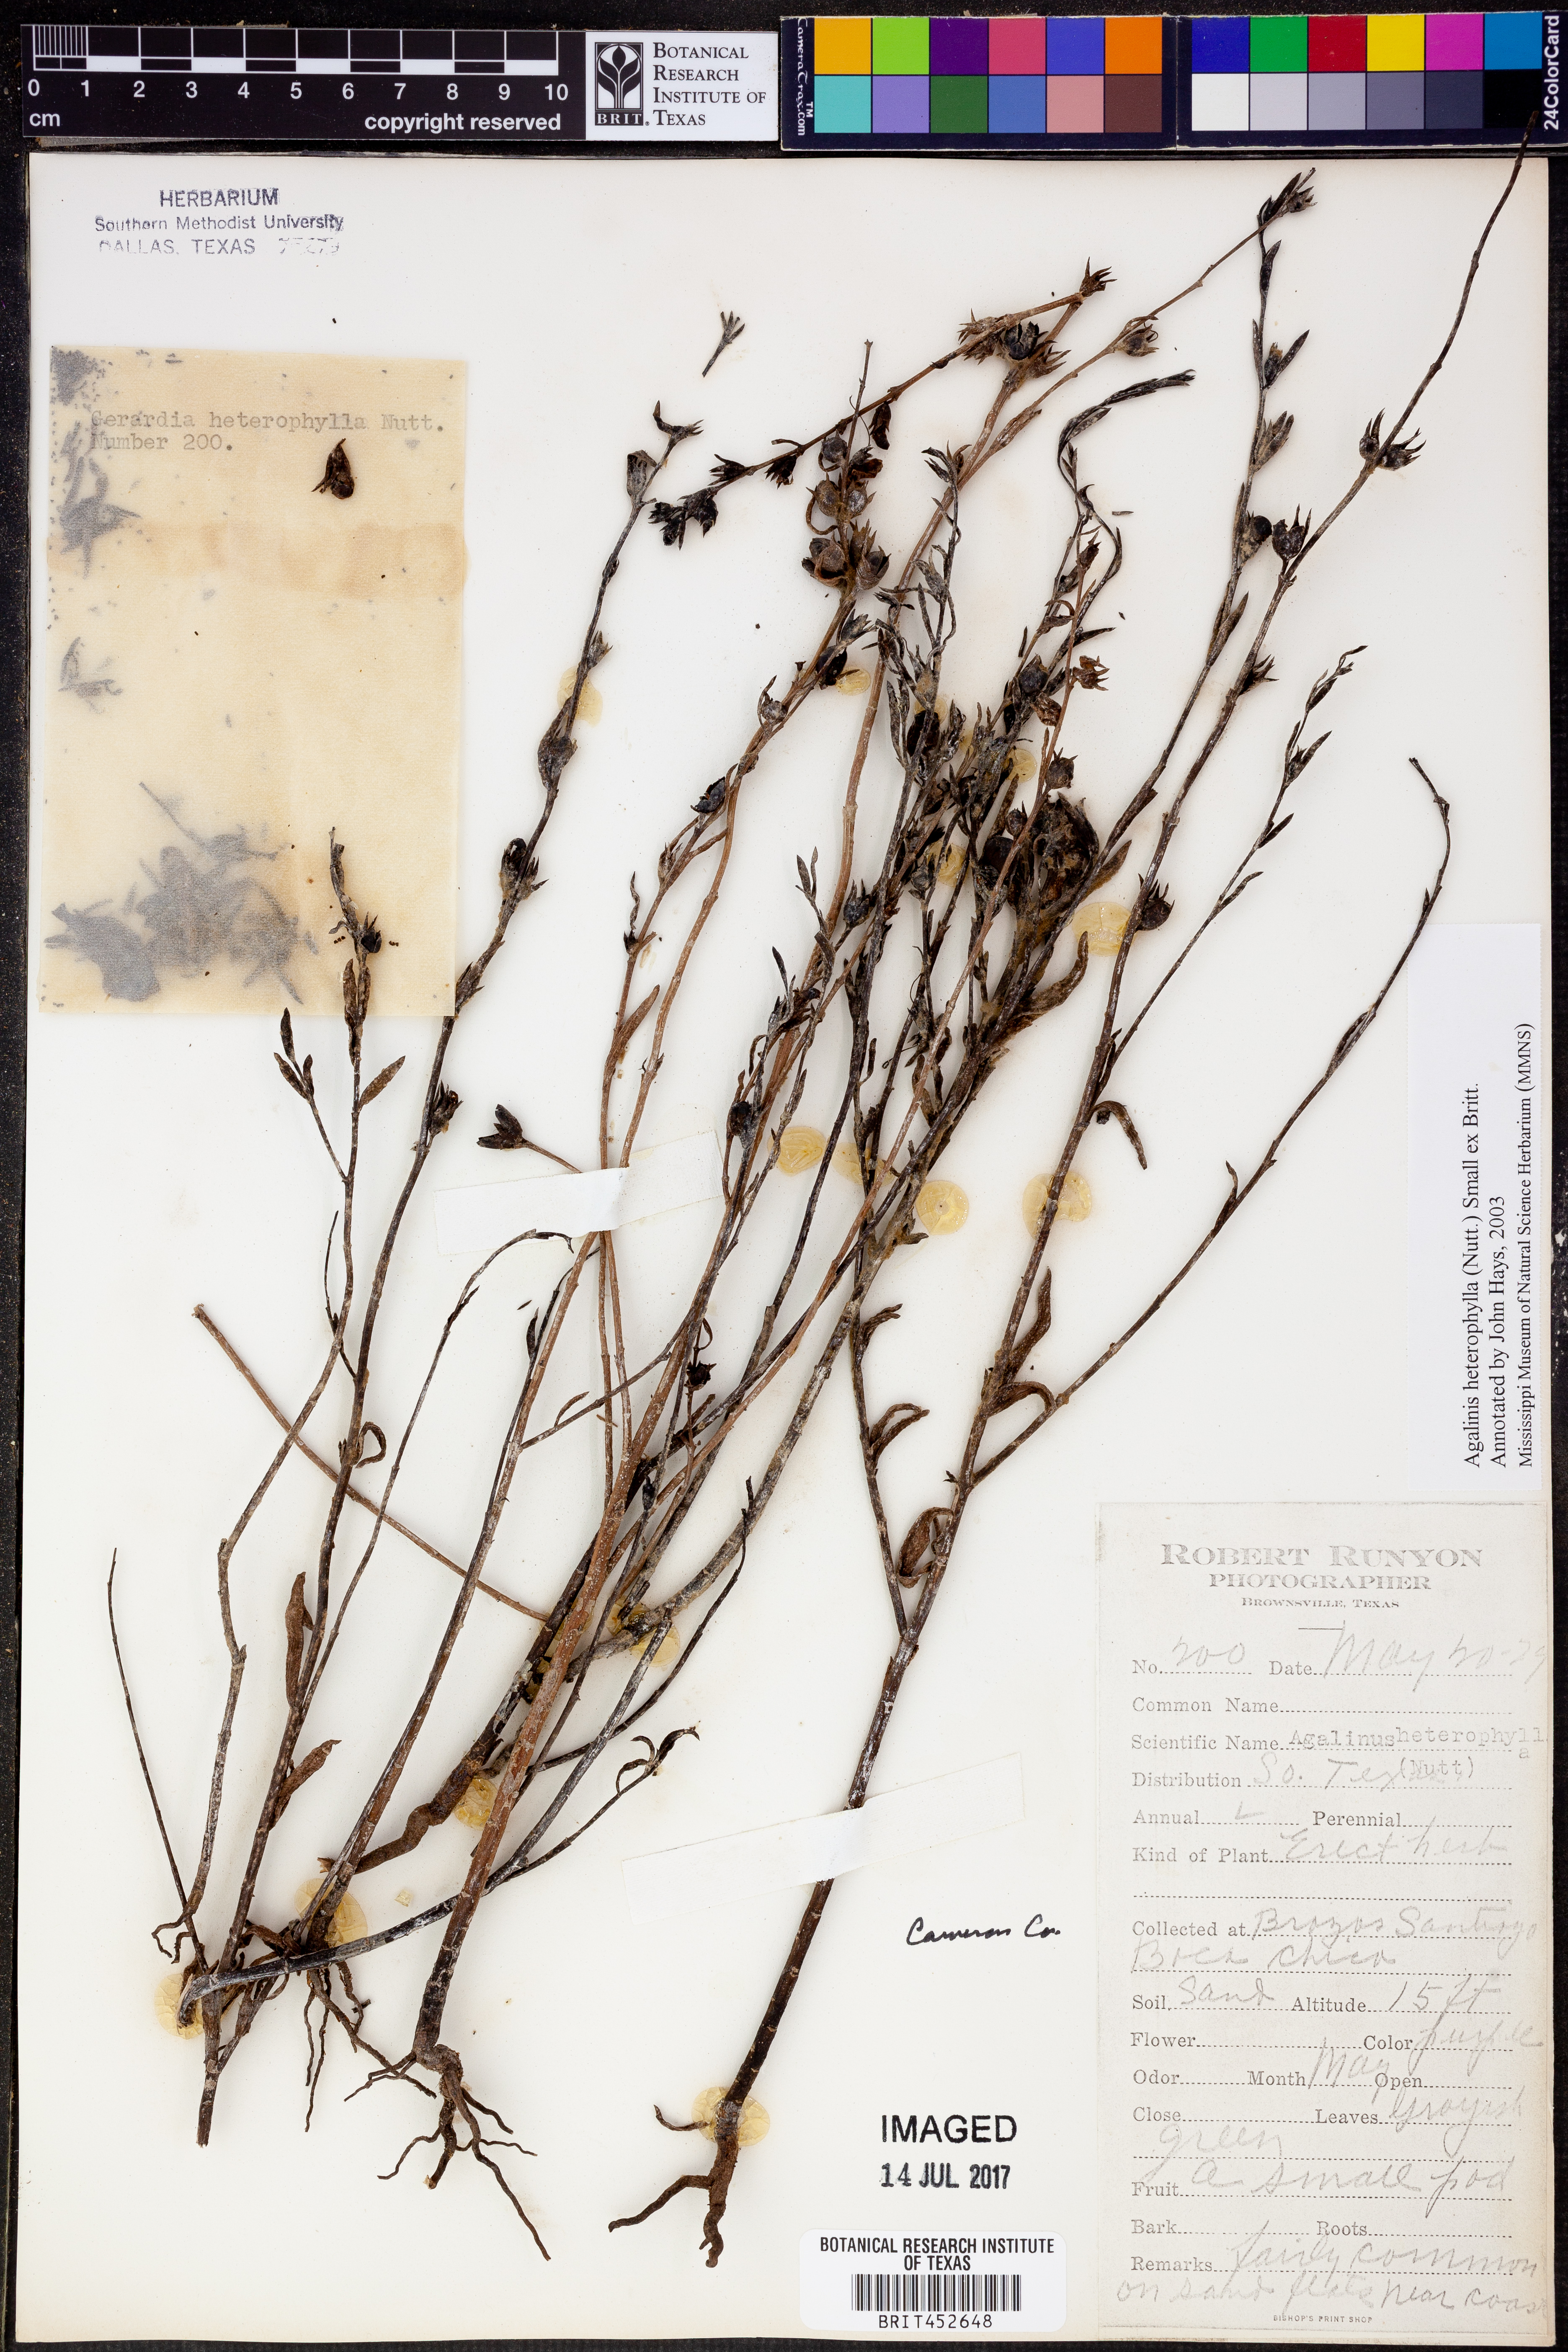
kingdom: Plantae
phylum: Tracheophyta
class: Magnoliopsida
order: Lamiales
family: Orobanchaceae
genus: Agalinis
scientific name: Agalinis heterophylla
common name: Prairie agalinis
